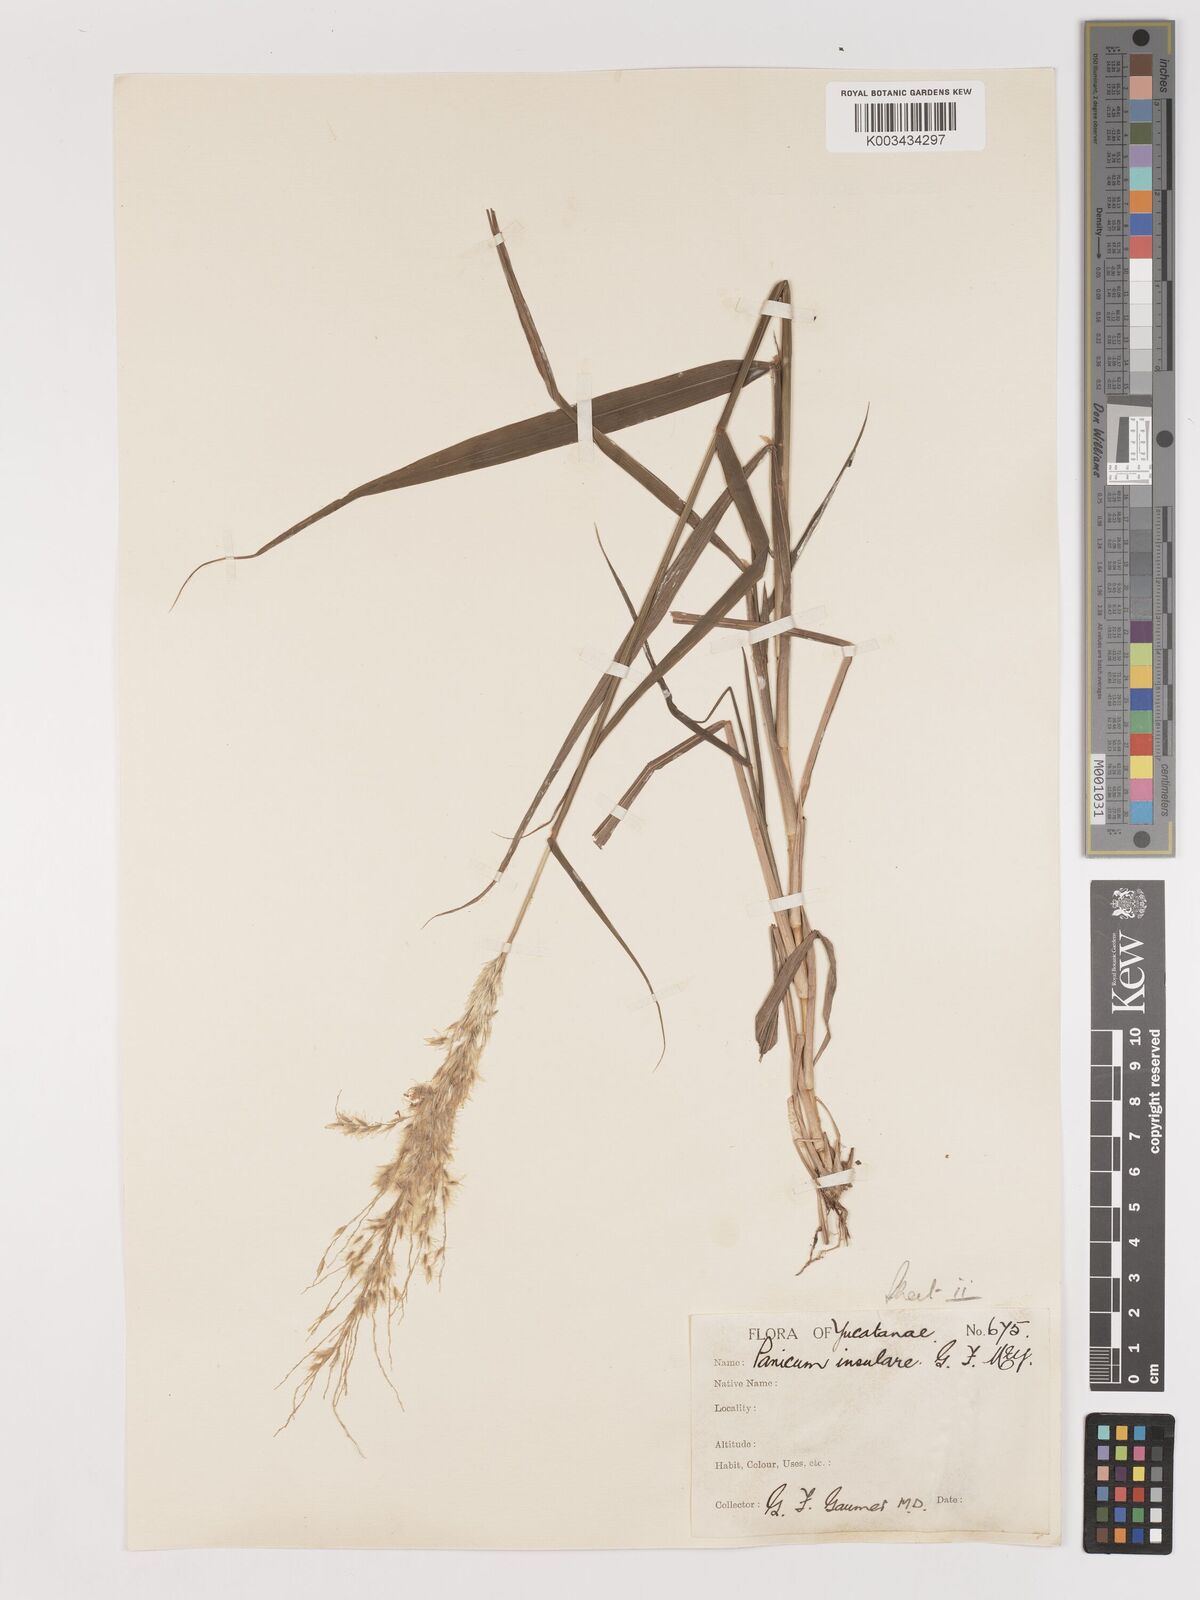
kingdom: Plantae
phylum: Tracheophyta
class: Liliopsida
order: Poales
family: Poaceae
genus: Digitaria
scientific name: Digitaria insularis
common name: Sourgrass
